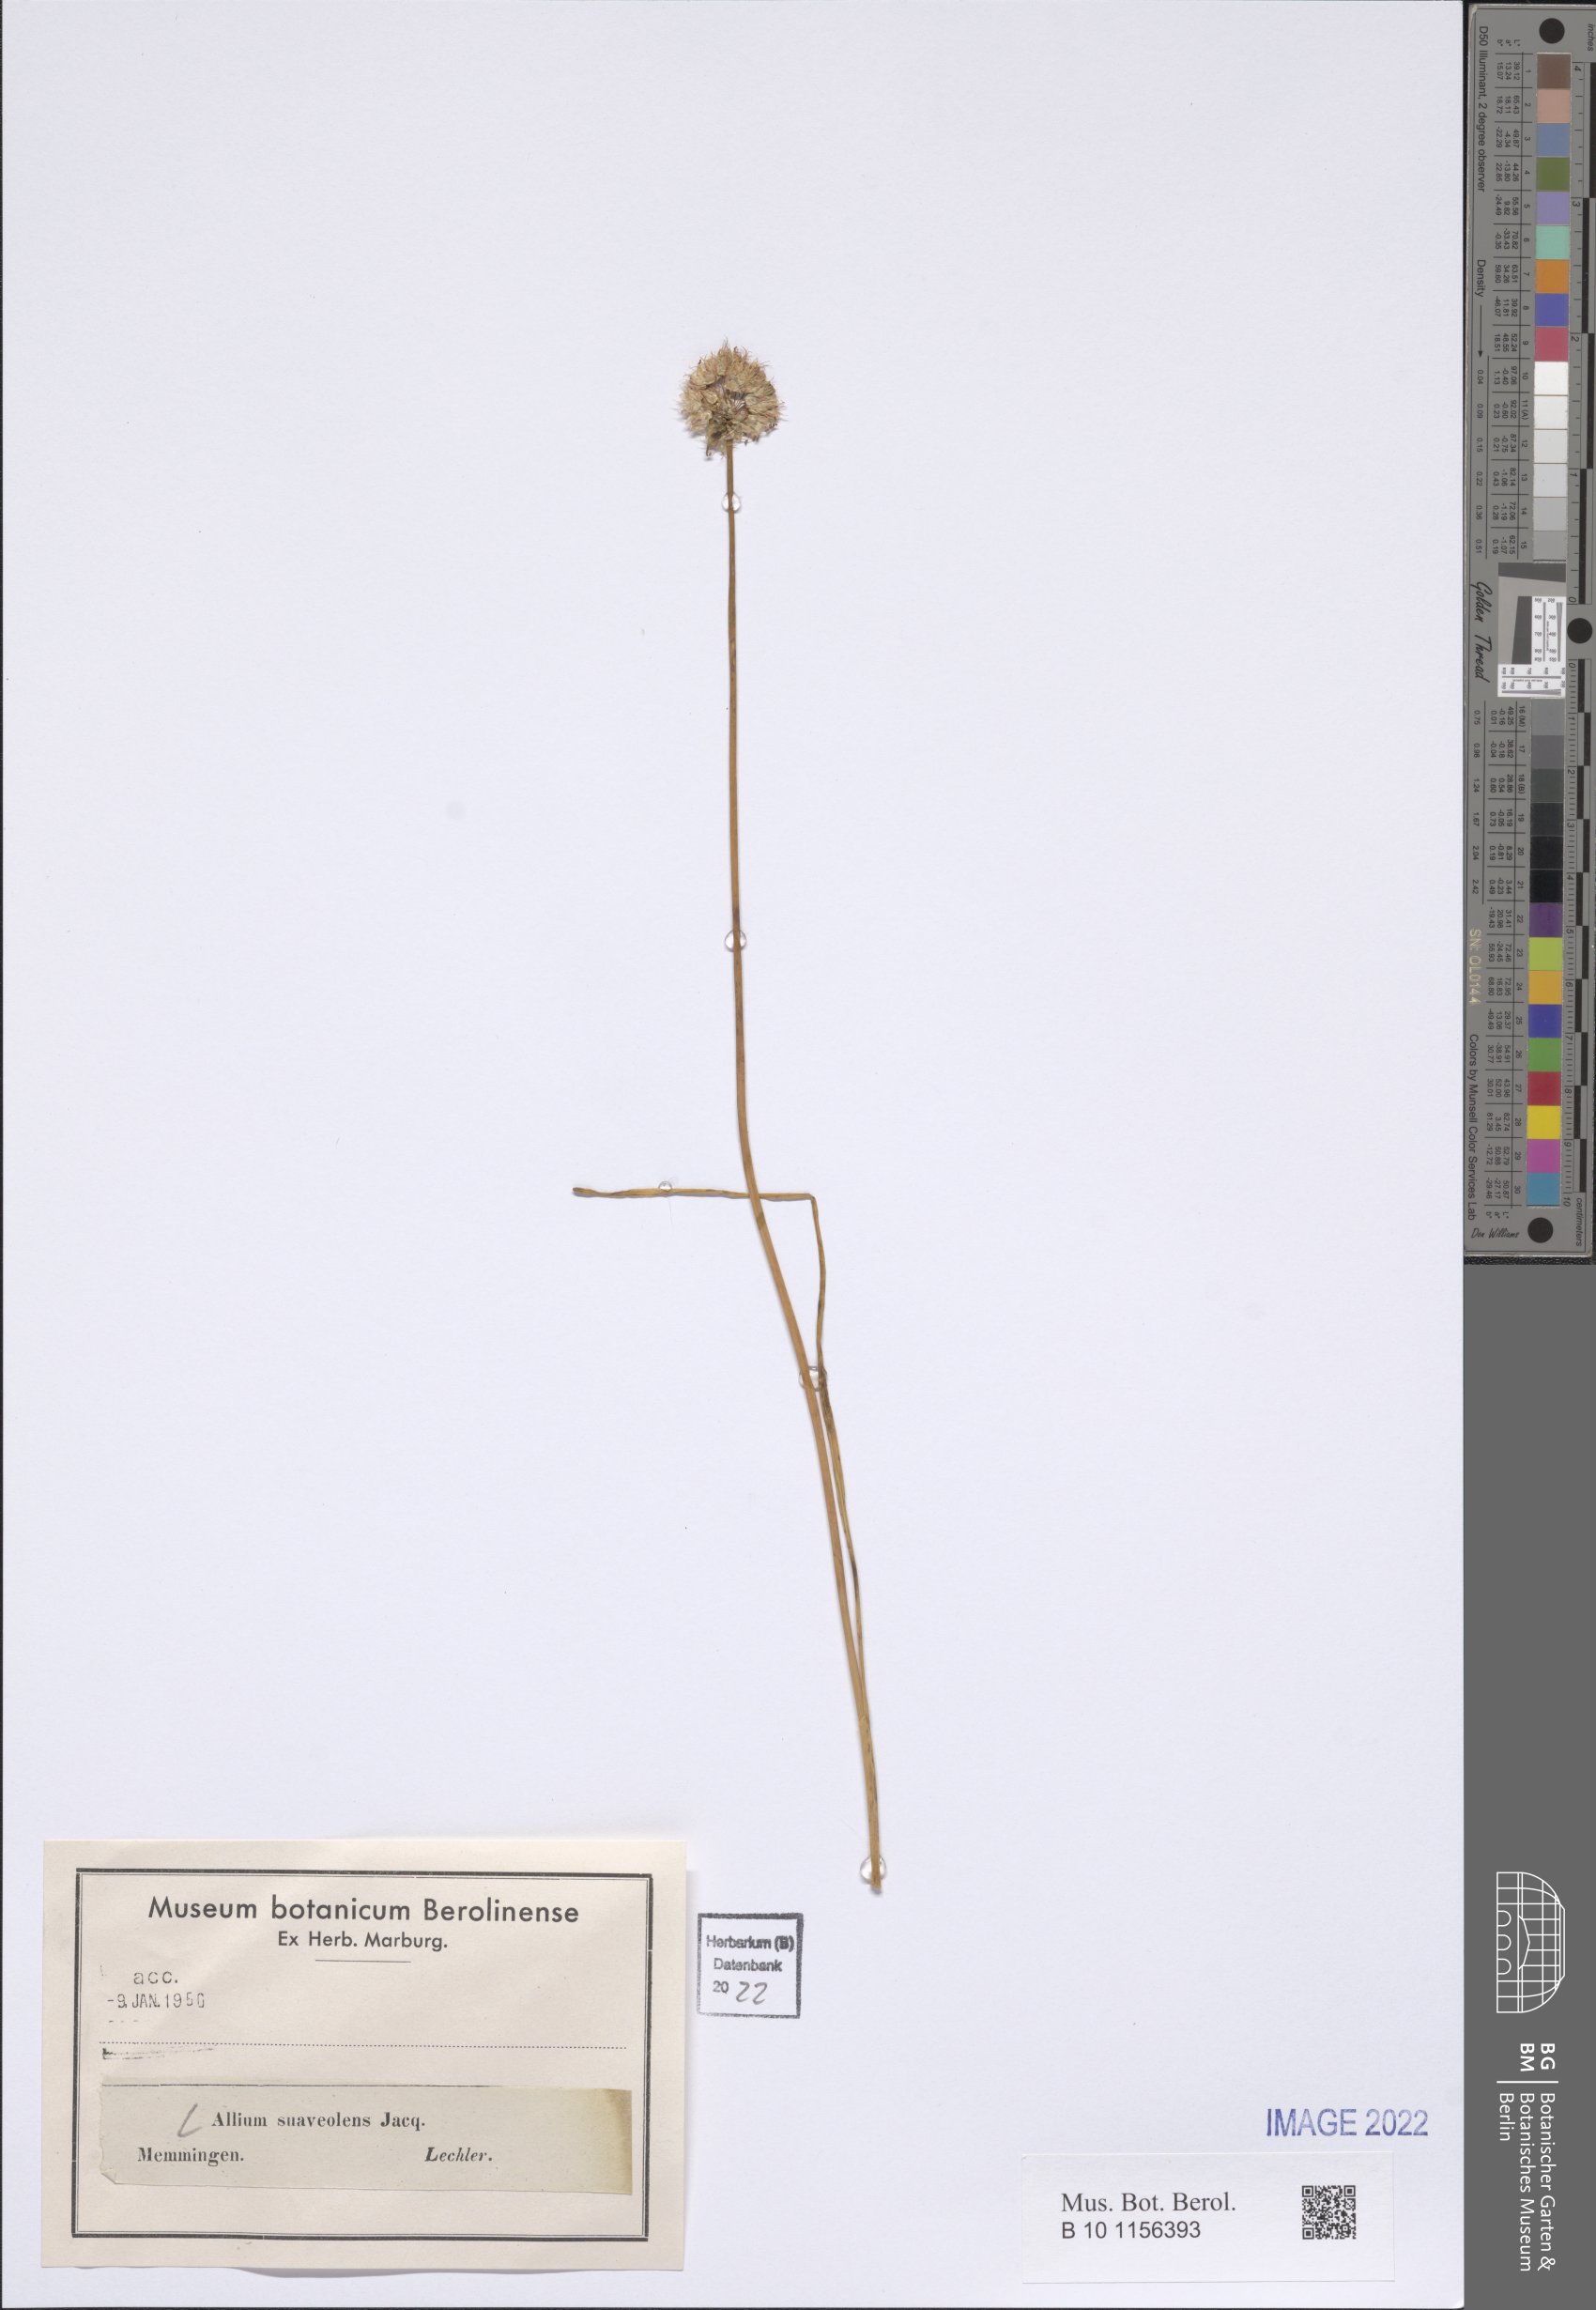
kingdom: Plantae
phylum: Tracheophyta
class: Liliopsida
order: Asparagales
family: Amaryllidaceae
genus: Allium
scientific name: Allium suaveolens
